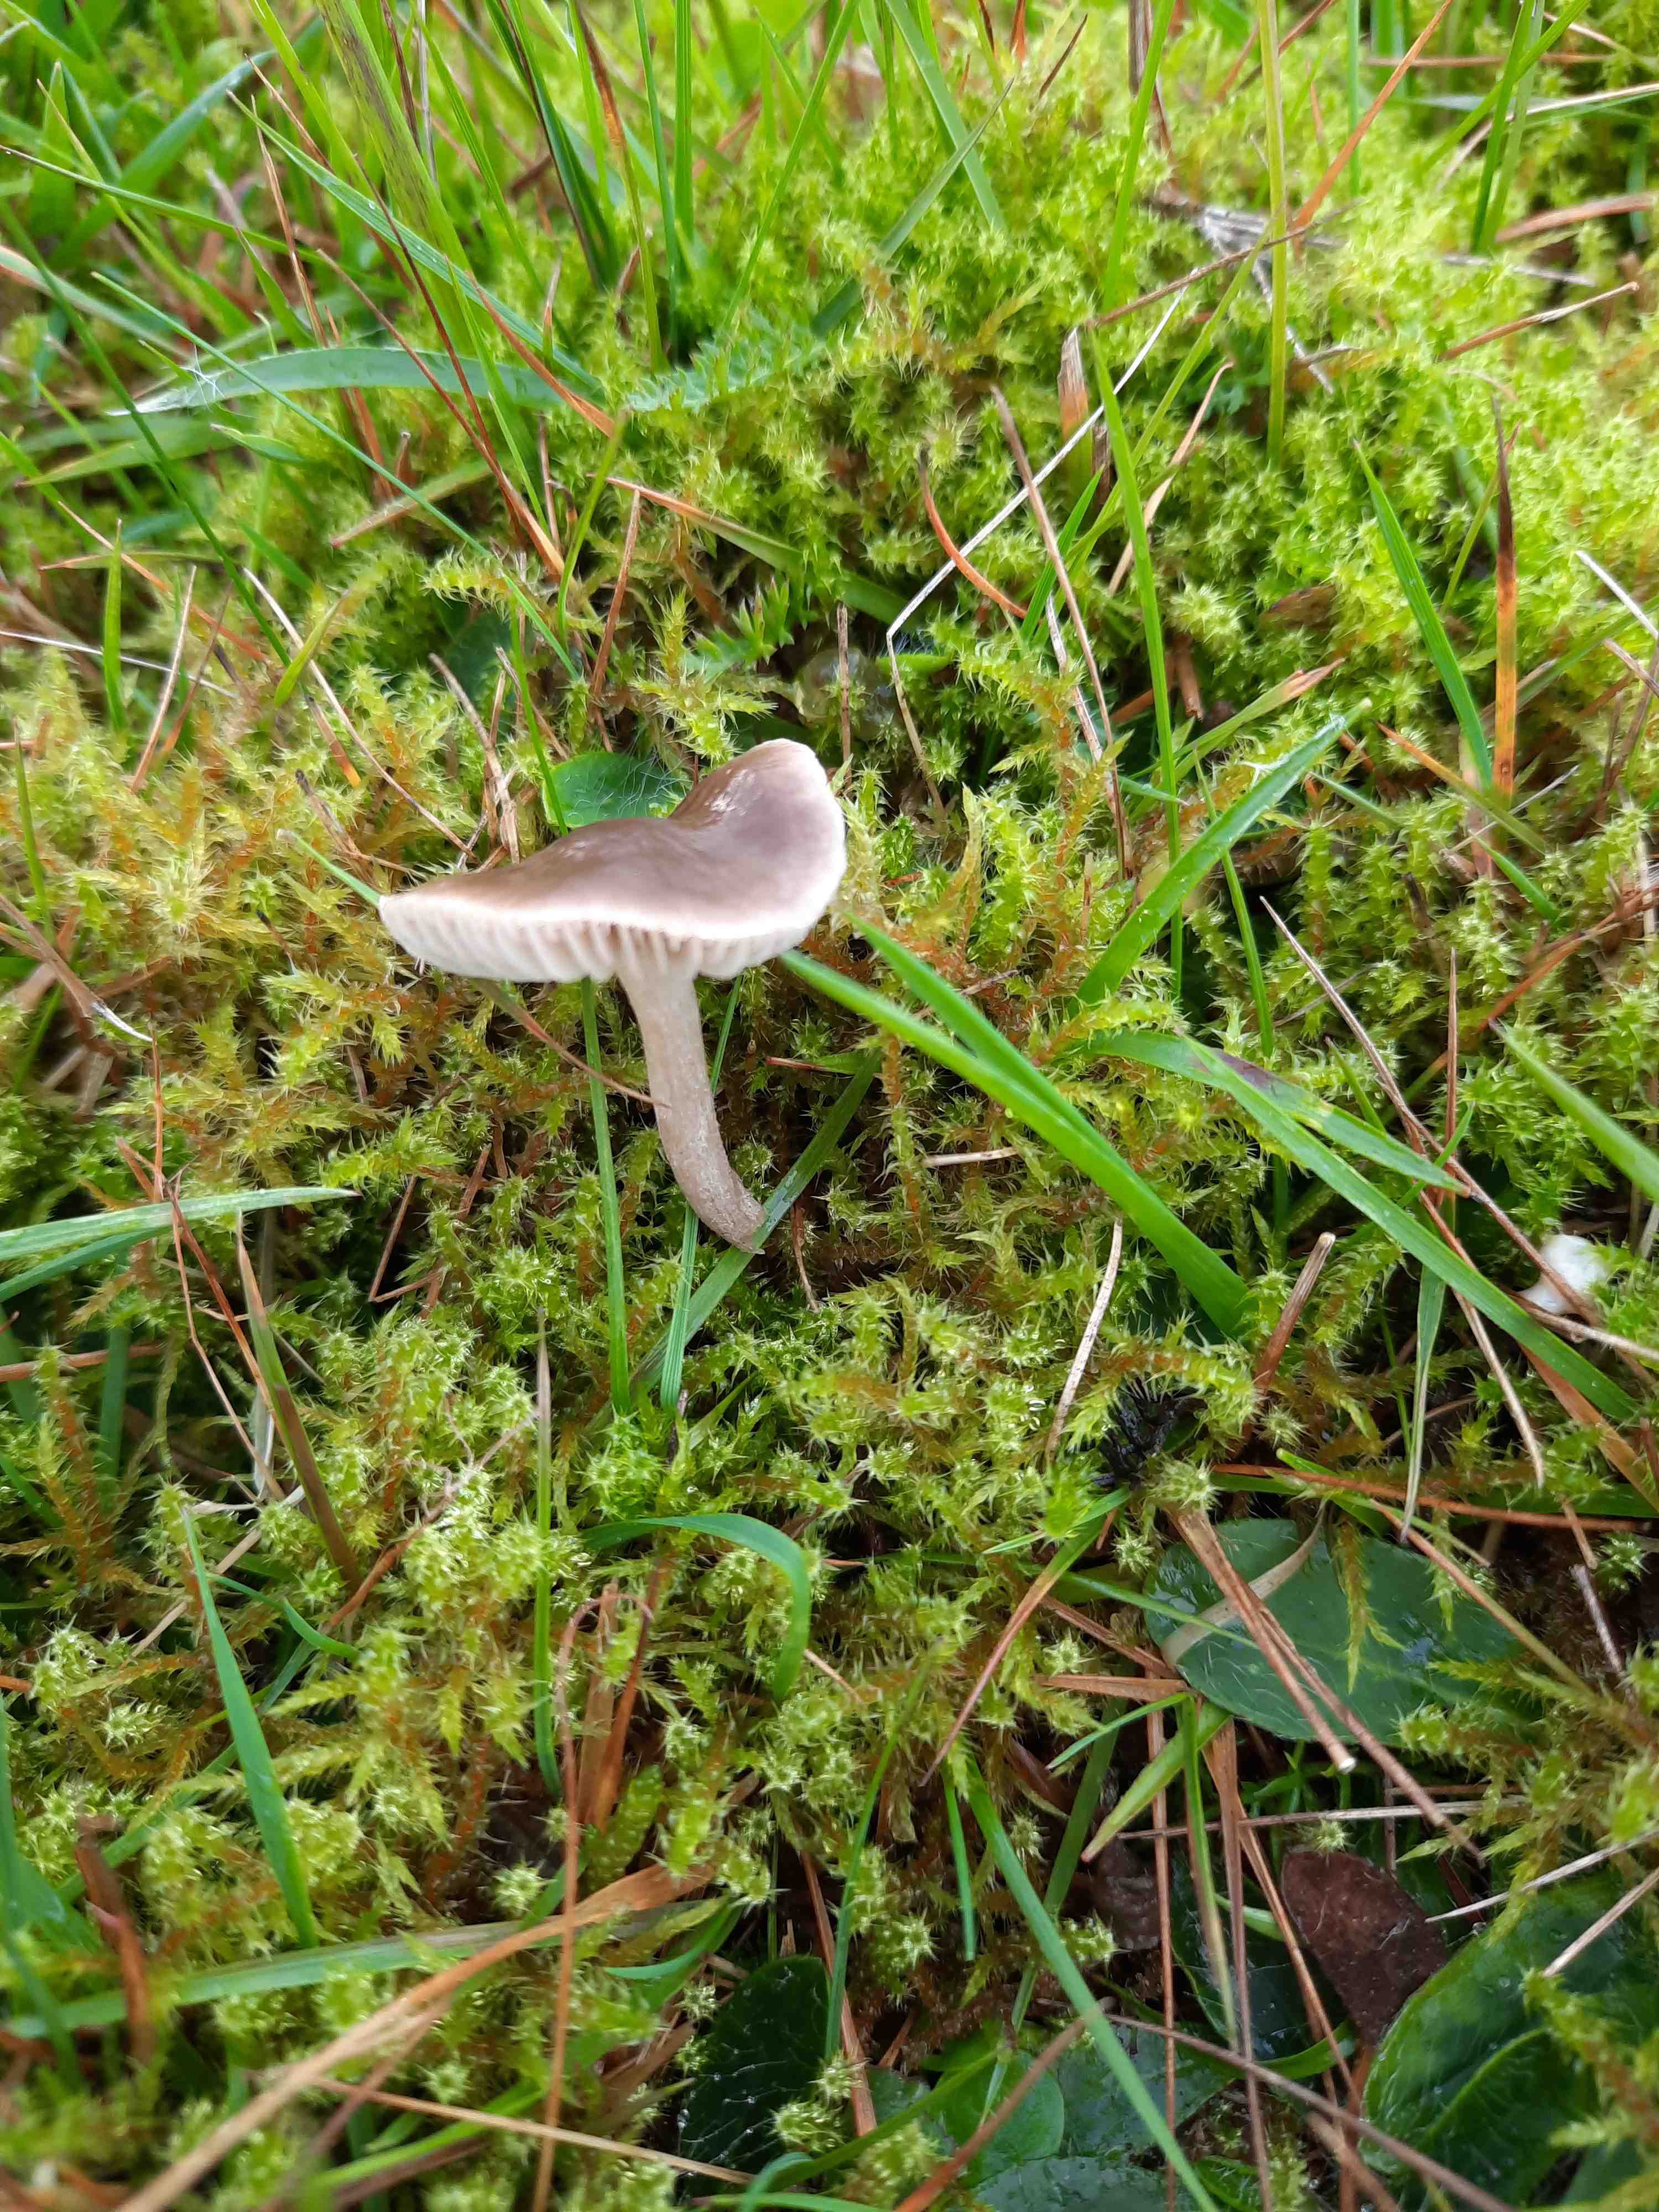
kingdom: Fungi
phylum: Basidiomycota
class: Agaricomycetes
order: Agaricales
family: Tricholomataceae
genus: Dermoloma
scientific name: Dermoloma cuneifolium
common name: eng-nonnehat
